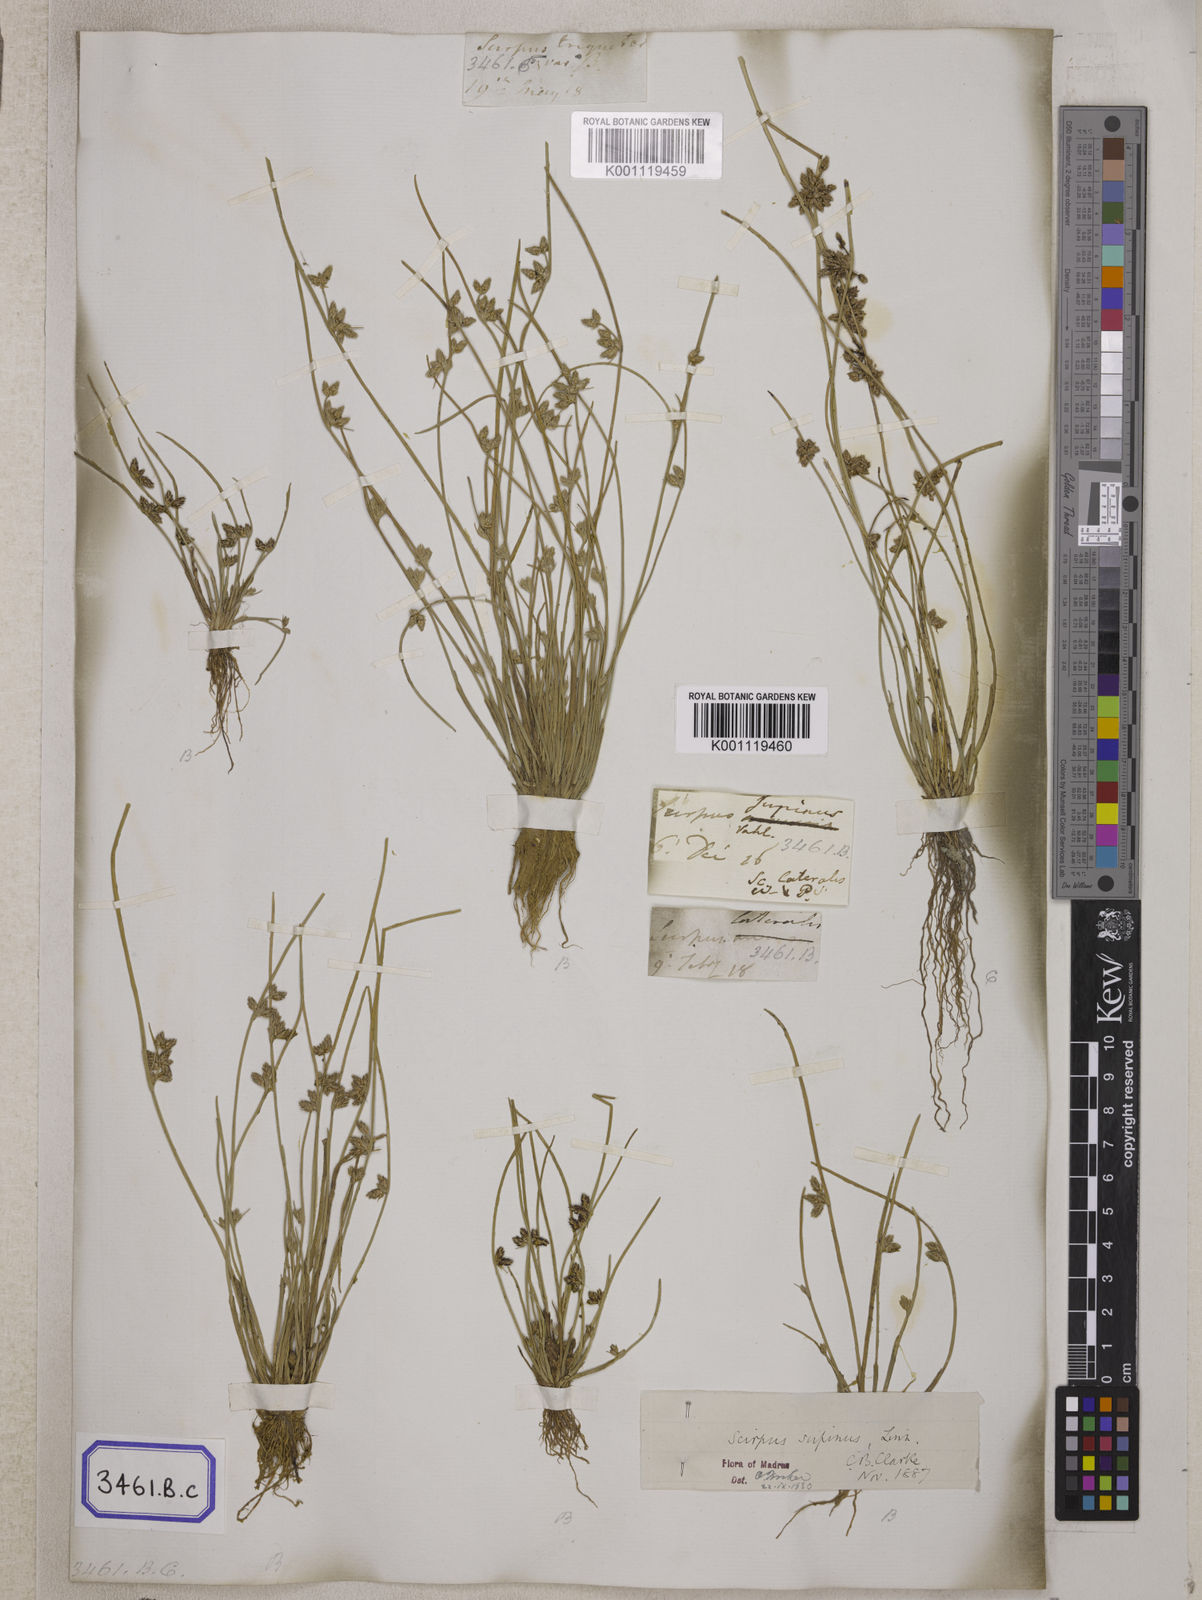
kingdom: Plantae
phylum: Tracheophyta
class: Liliopsida
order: Poales
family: Cyperaceae
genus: Scirpus
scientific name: Scirpus
